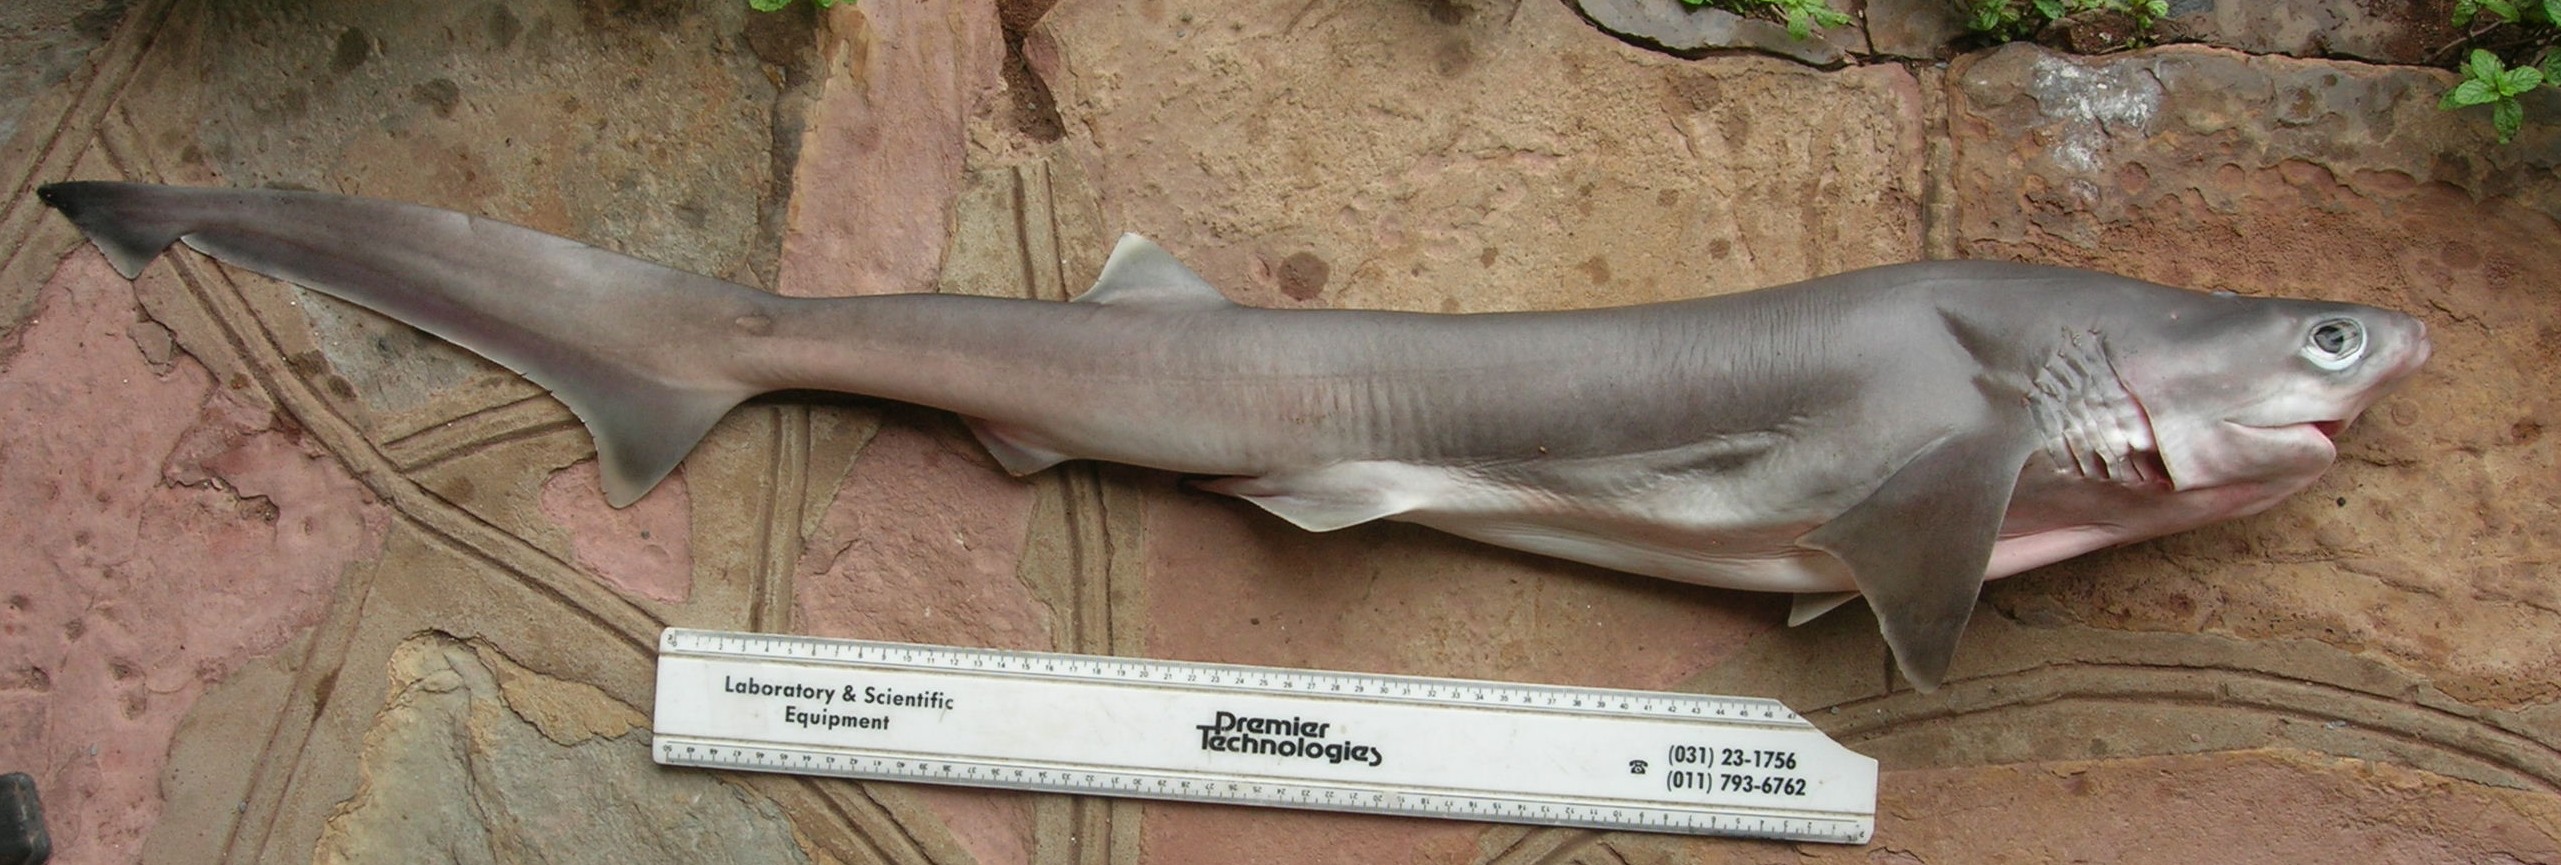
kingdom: Animalia
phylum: Chordata
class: Elasmobranchii
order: Hexanchiformes
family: Hexanchidae
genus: Hexanchus
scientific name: Hexanchus nakamurai
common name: Bigeye sixgill shark
